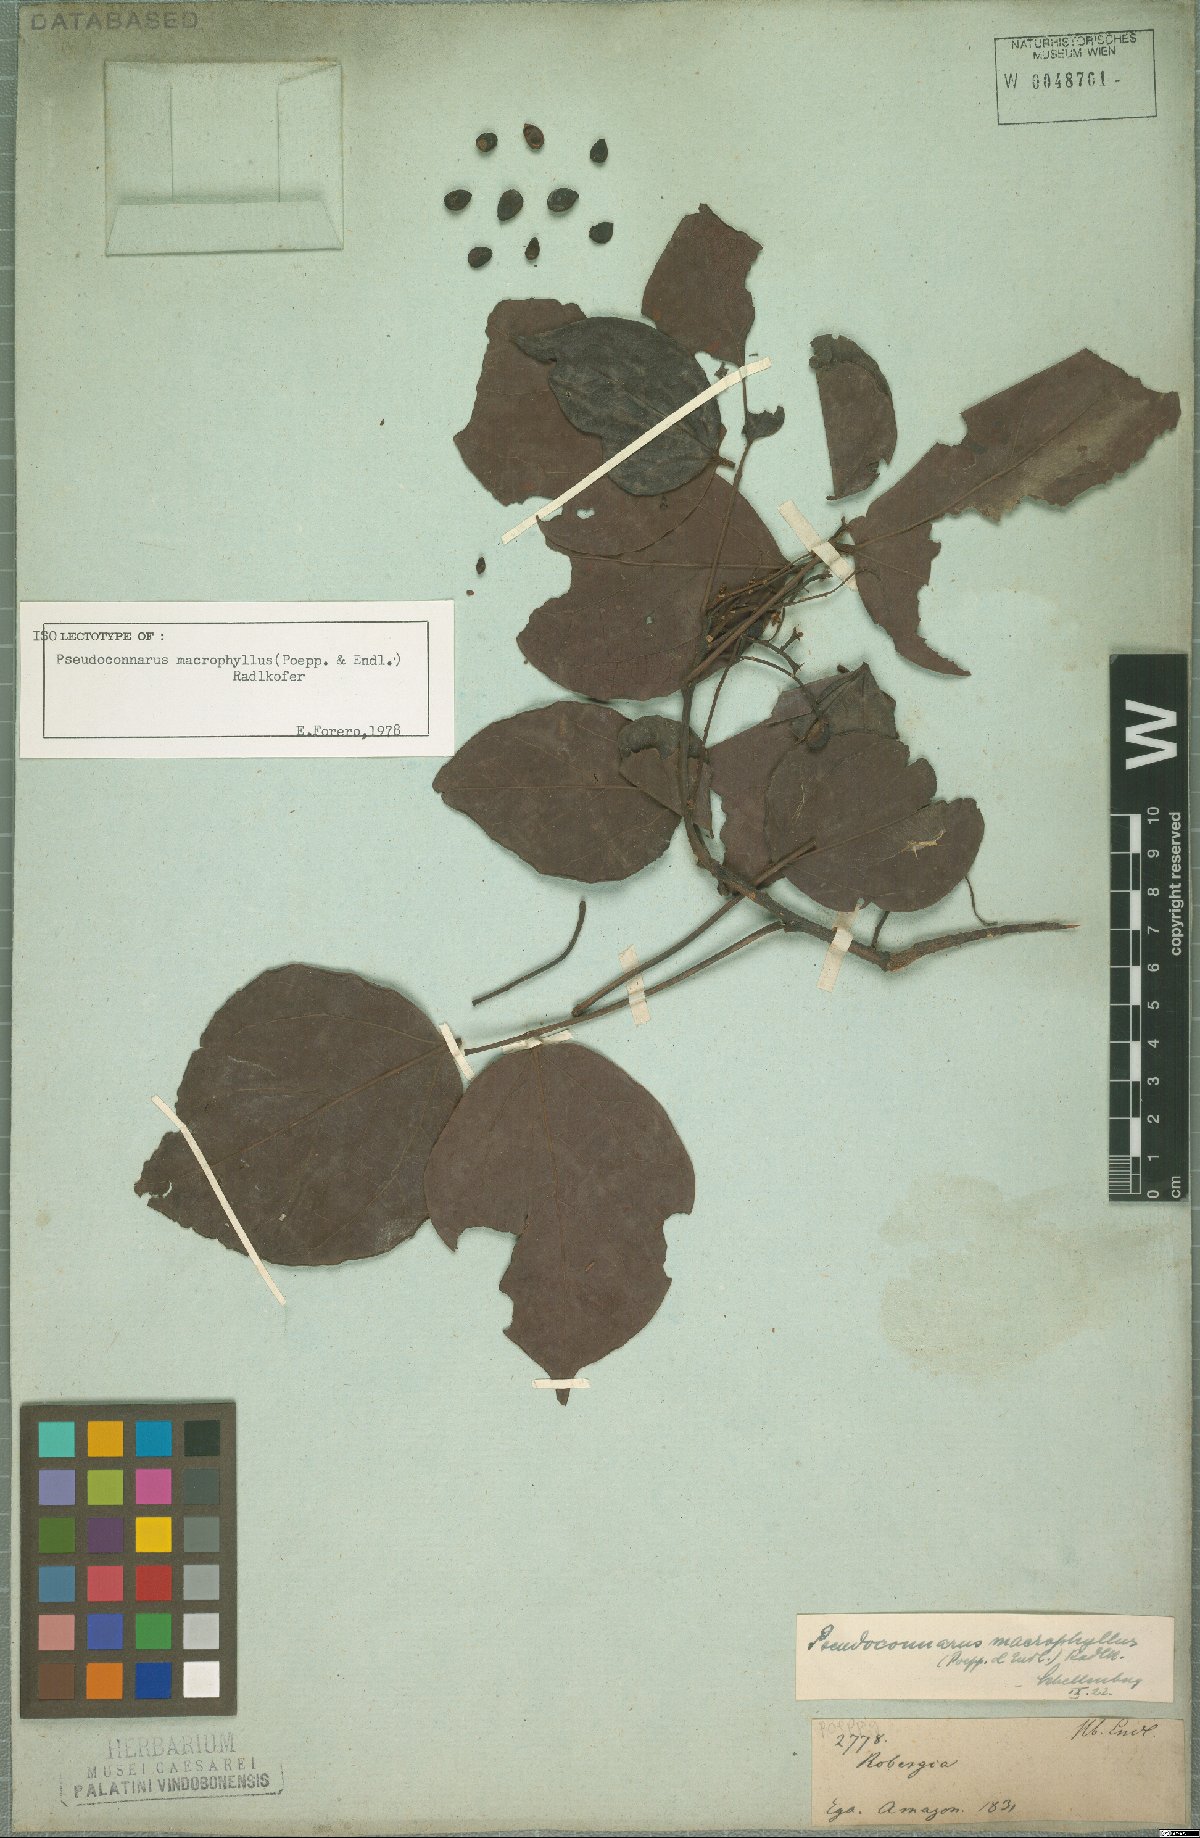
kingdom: Plantae
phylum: Tracheophyta
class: Magnoliopsida
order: Oxalidales
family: Connaraceae
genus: Pseudoconnarus
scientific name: Pseudoconnarus macrophyllus
